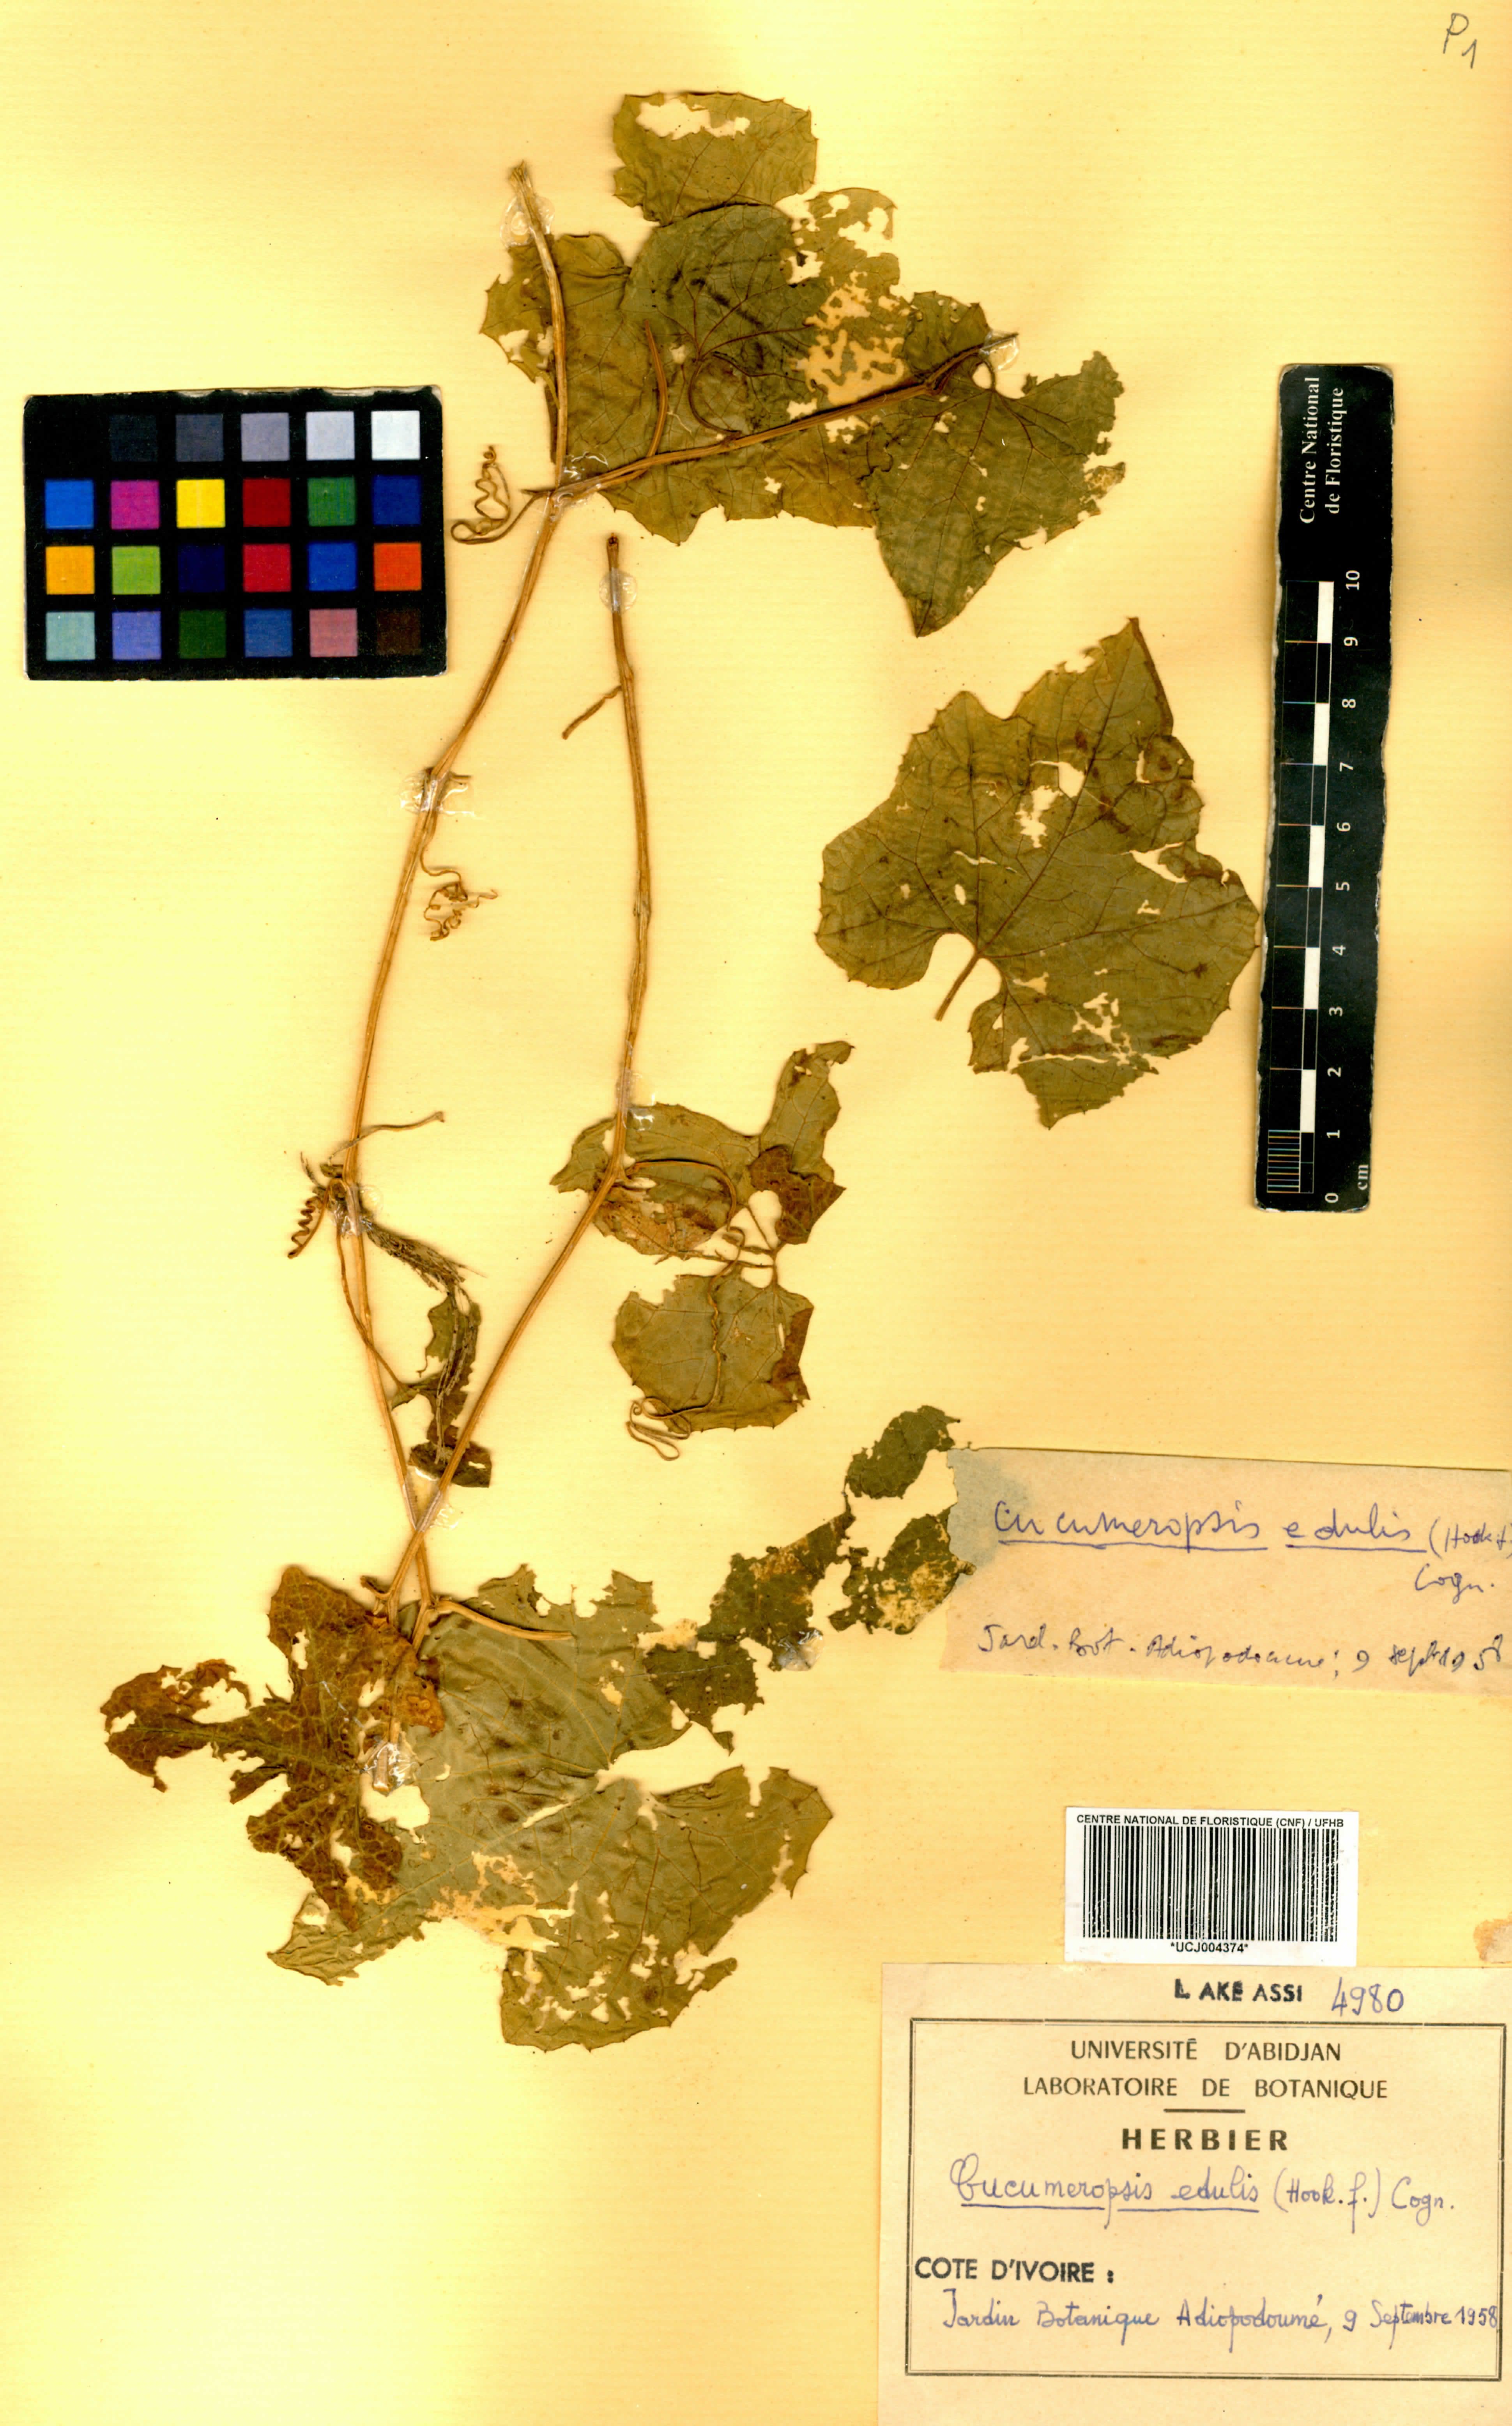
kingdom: Plantae
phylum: Tracheophyta
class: Magnoliopsida
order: Cucurbitales
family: Cucurbitaceae
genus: Melothria
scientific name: Melothria sphaerocarpa
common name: Egusi-itoo
